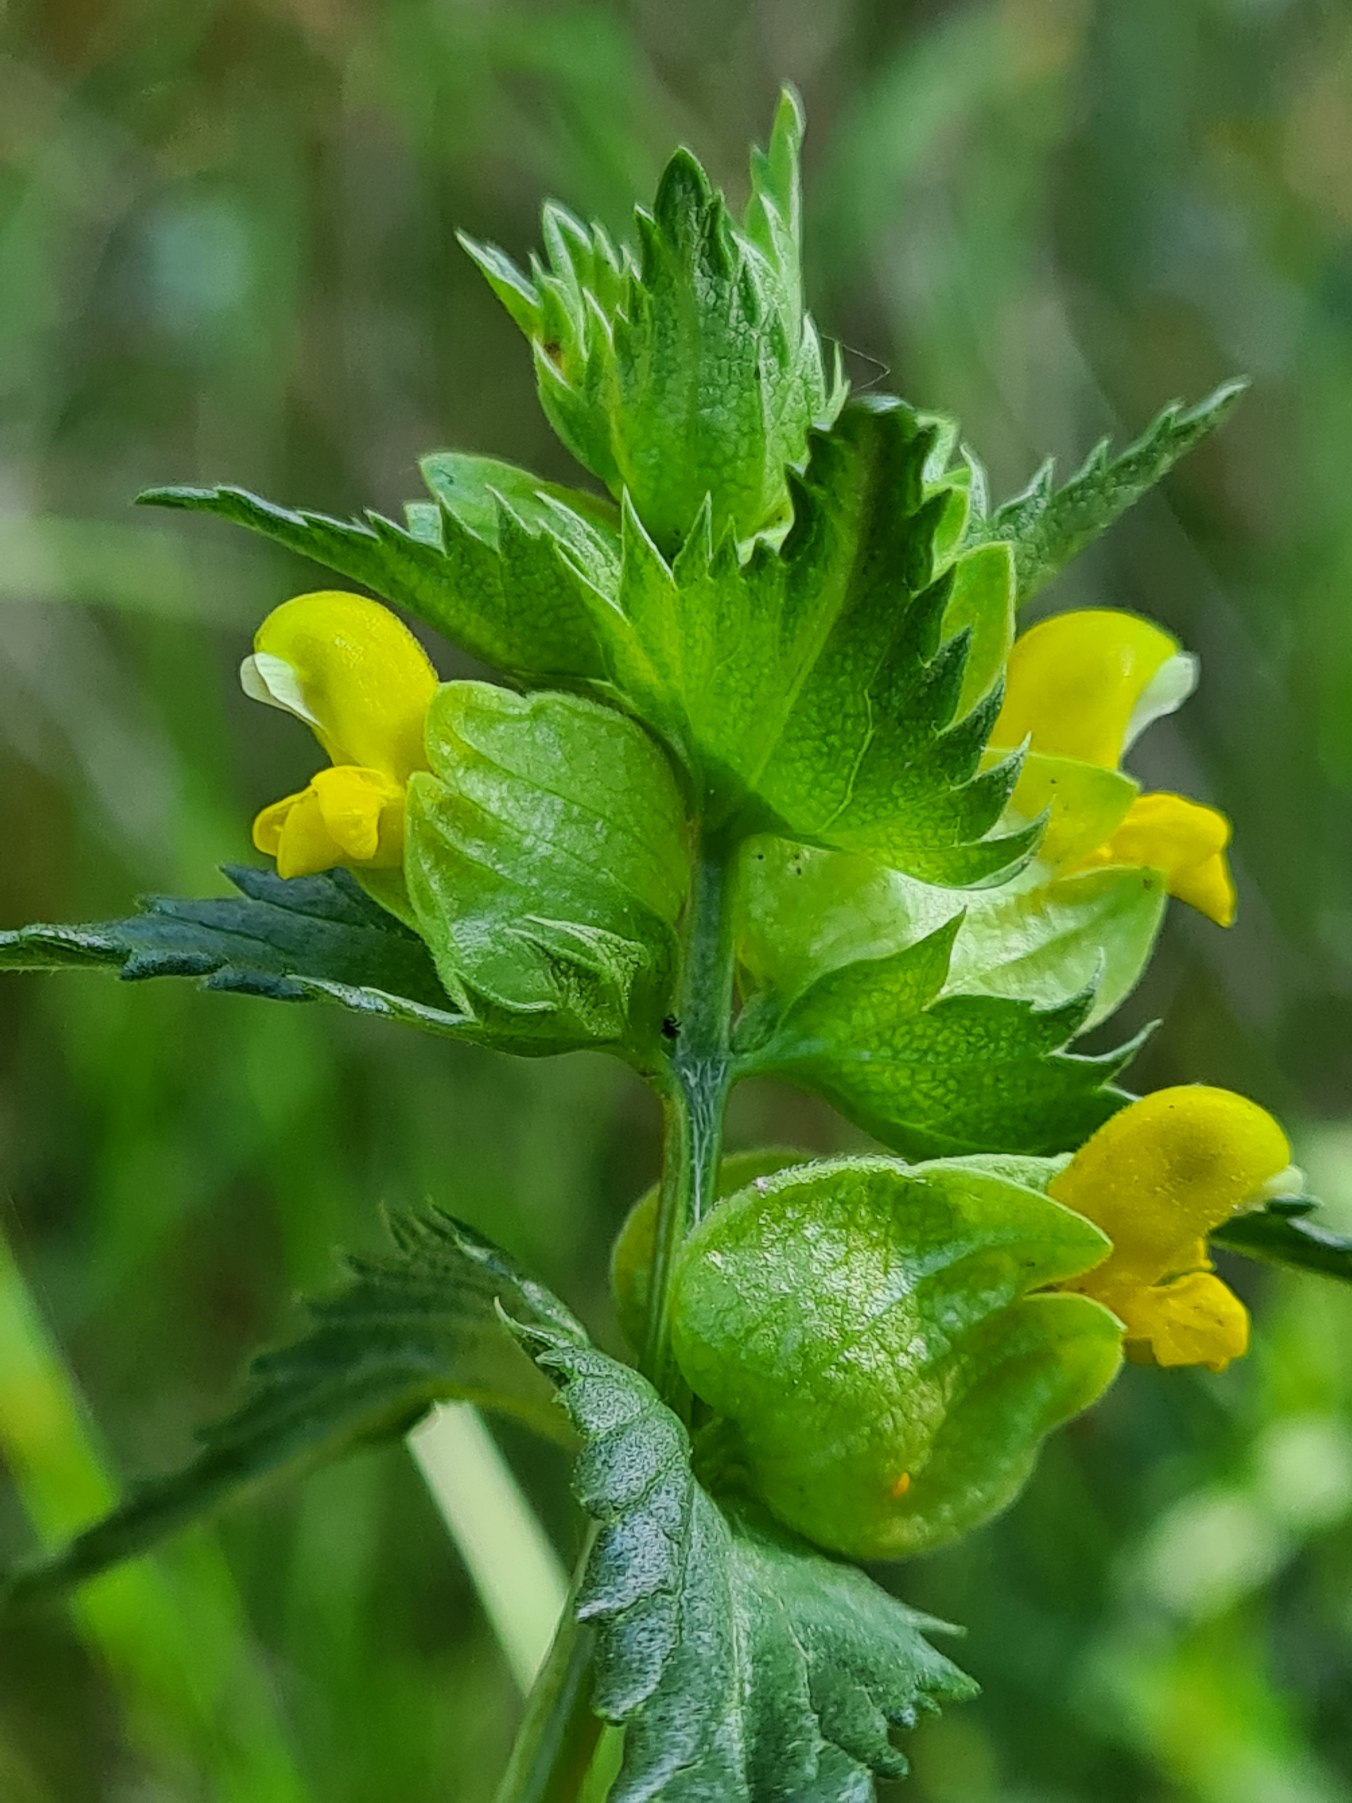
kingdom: Plantae
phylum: Tracheophyta
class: Magnoliopsida
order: Lamiales
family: Orobanchaceae
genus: Rhinanthus
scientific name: Rhinanthus minor
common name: Liden skjaller
